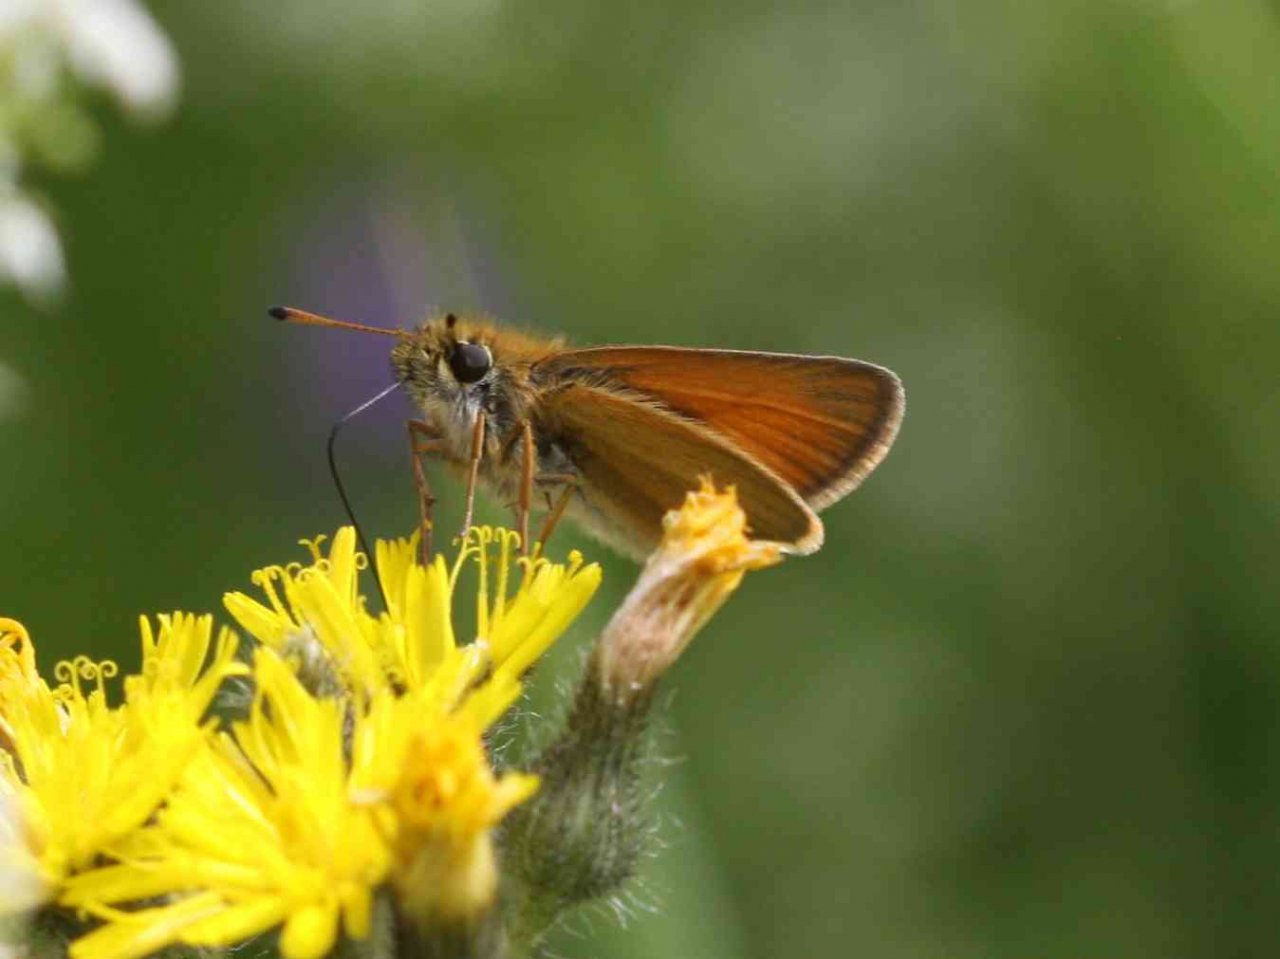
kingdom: Animalia
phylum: Arthropoda
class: Insecta
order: Lepidoptera
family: Hesperiidae
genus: Thymelicus
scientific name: Thymelicus lineola
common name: European Skipper
